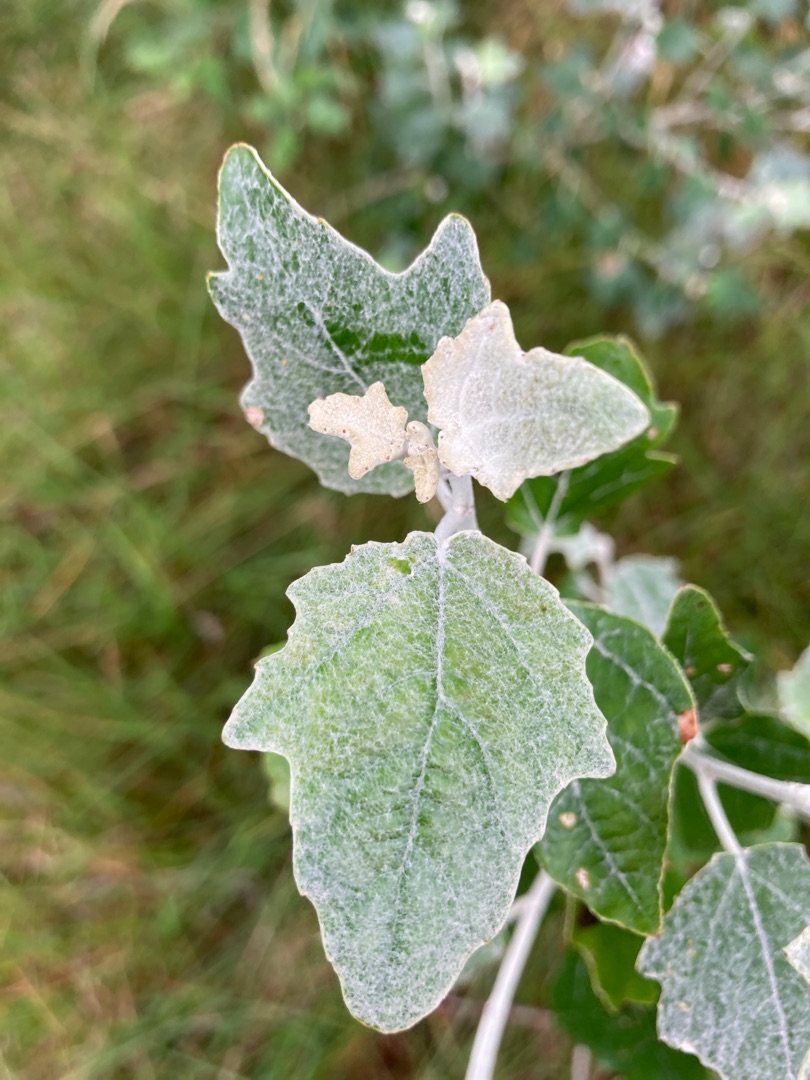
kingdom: Plantae
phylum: Tracheophyta
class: Magnoliopsida
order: Malpighiales
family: Salicaceae
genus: Populus
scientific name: Populus alba
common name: Sølv-poppel
